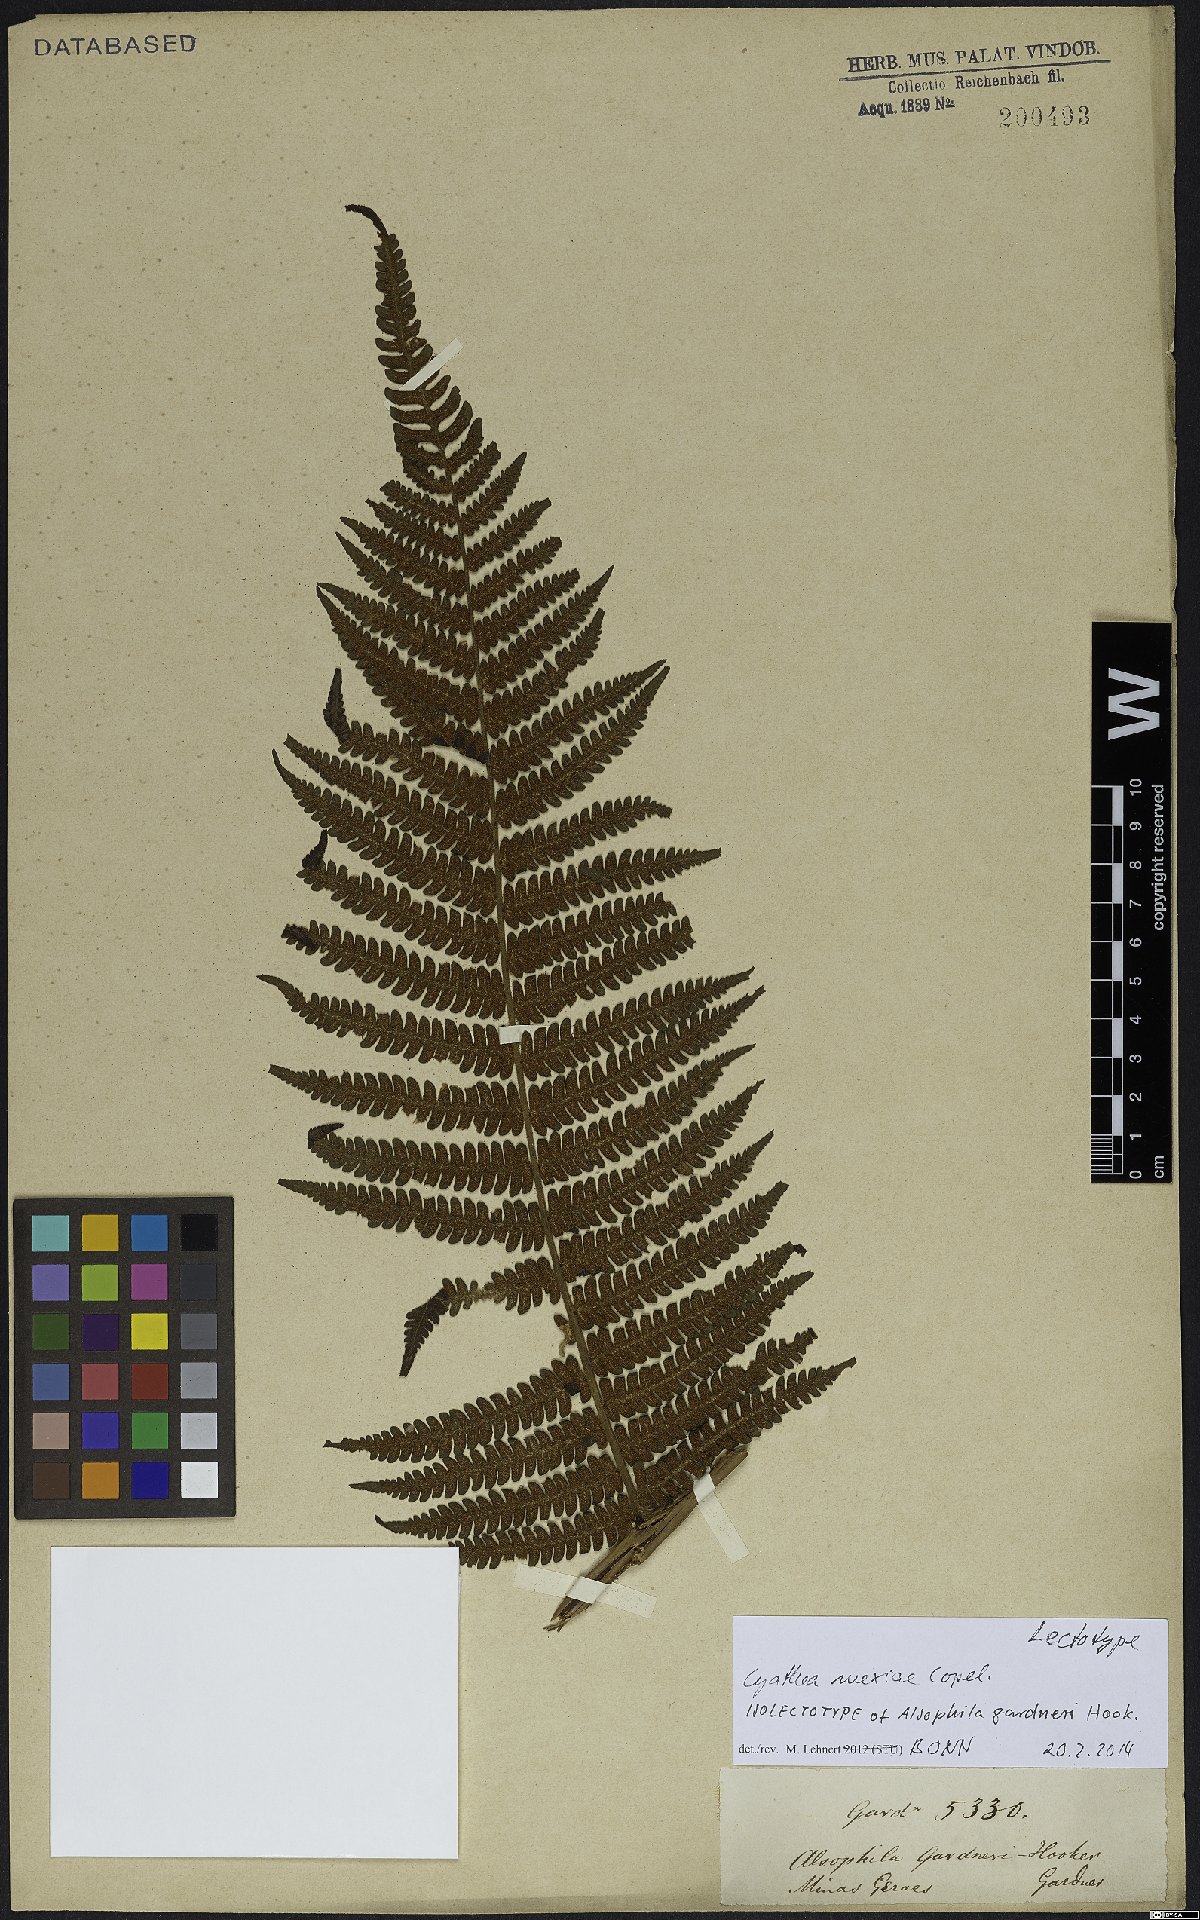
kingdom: Plantae
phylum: Tracheophyta
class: Polypodiopsida
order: Cyatheales
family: Cyatheaceae
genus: Cyathea
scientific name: Cyathea mexiae
